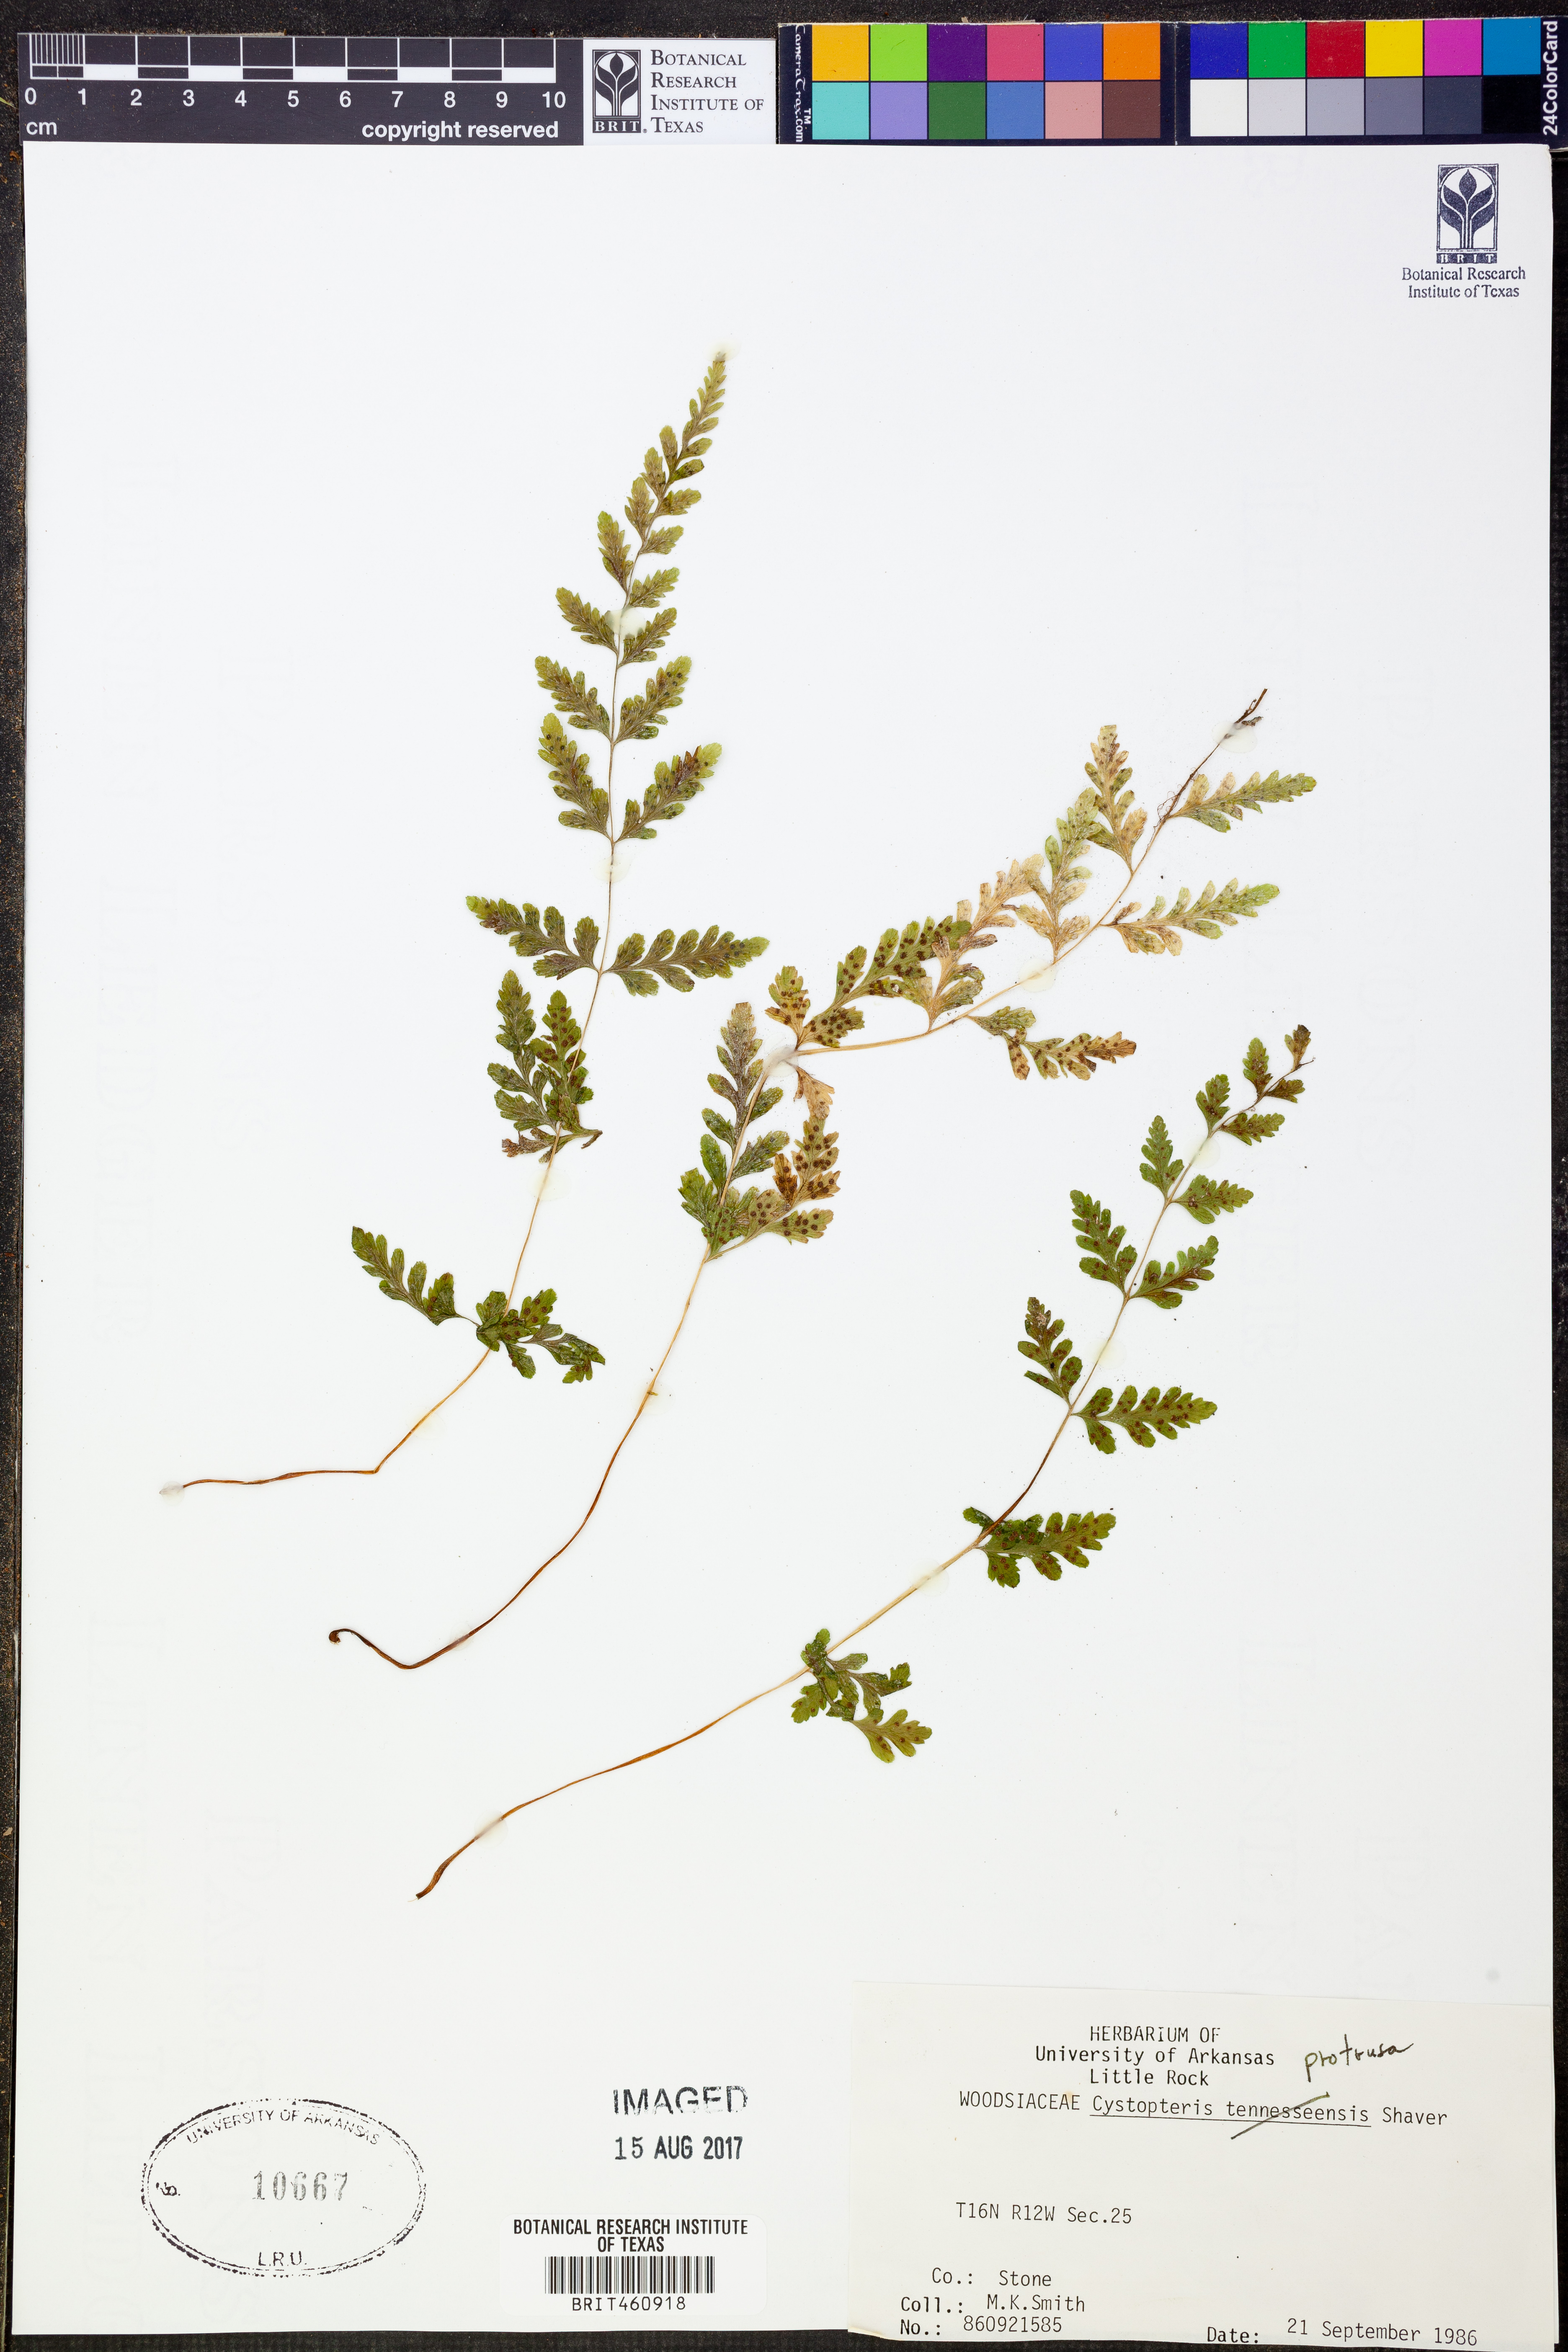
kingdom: Plantae
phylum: Tracheophyta
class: Polypodiopsida
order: Polypodiales
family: Cystopteridaceae
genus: Cystopteris
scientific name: Cystopteris protrusa
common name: Lowland brittle fern
